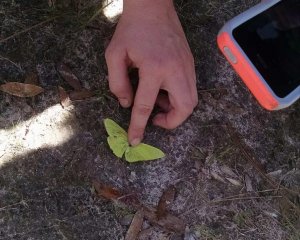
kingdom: Animalia
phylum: Arthropoda
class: Insecta
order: Lepidoptera
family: Pieridae
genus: Phoebis
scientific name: Phoebis sennae
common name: Cloudless Sulphur
